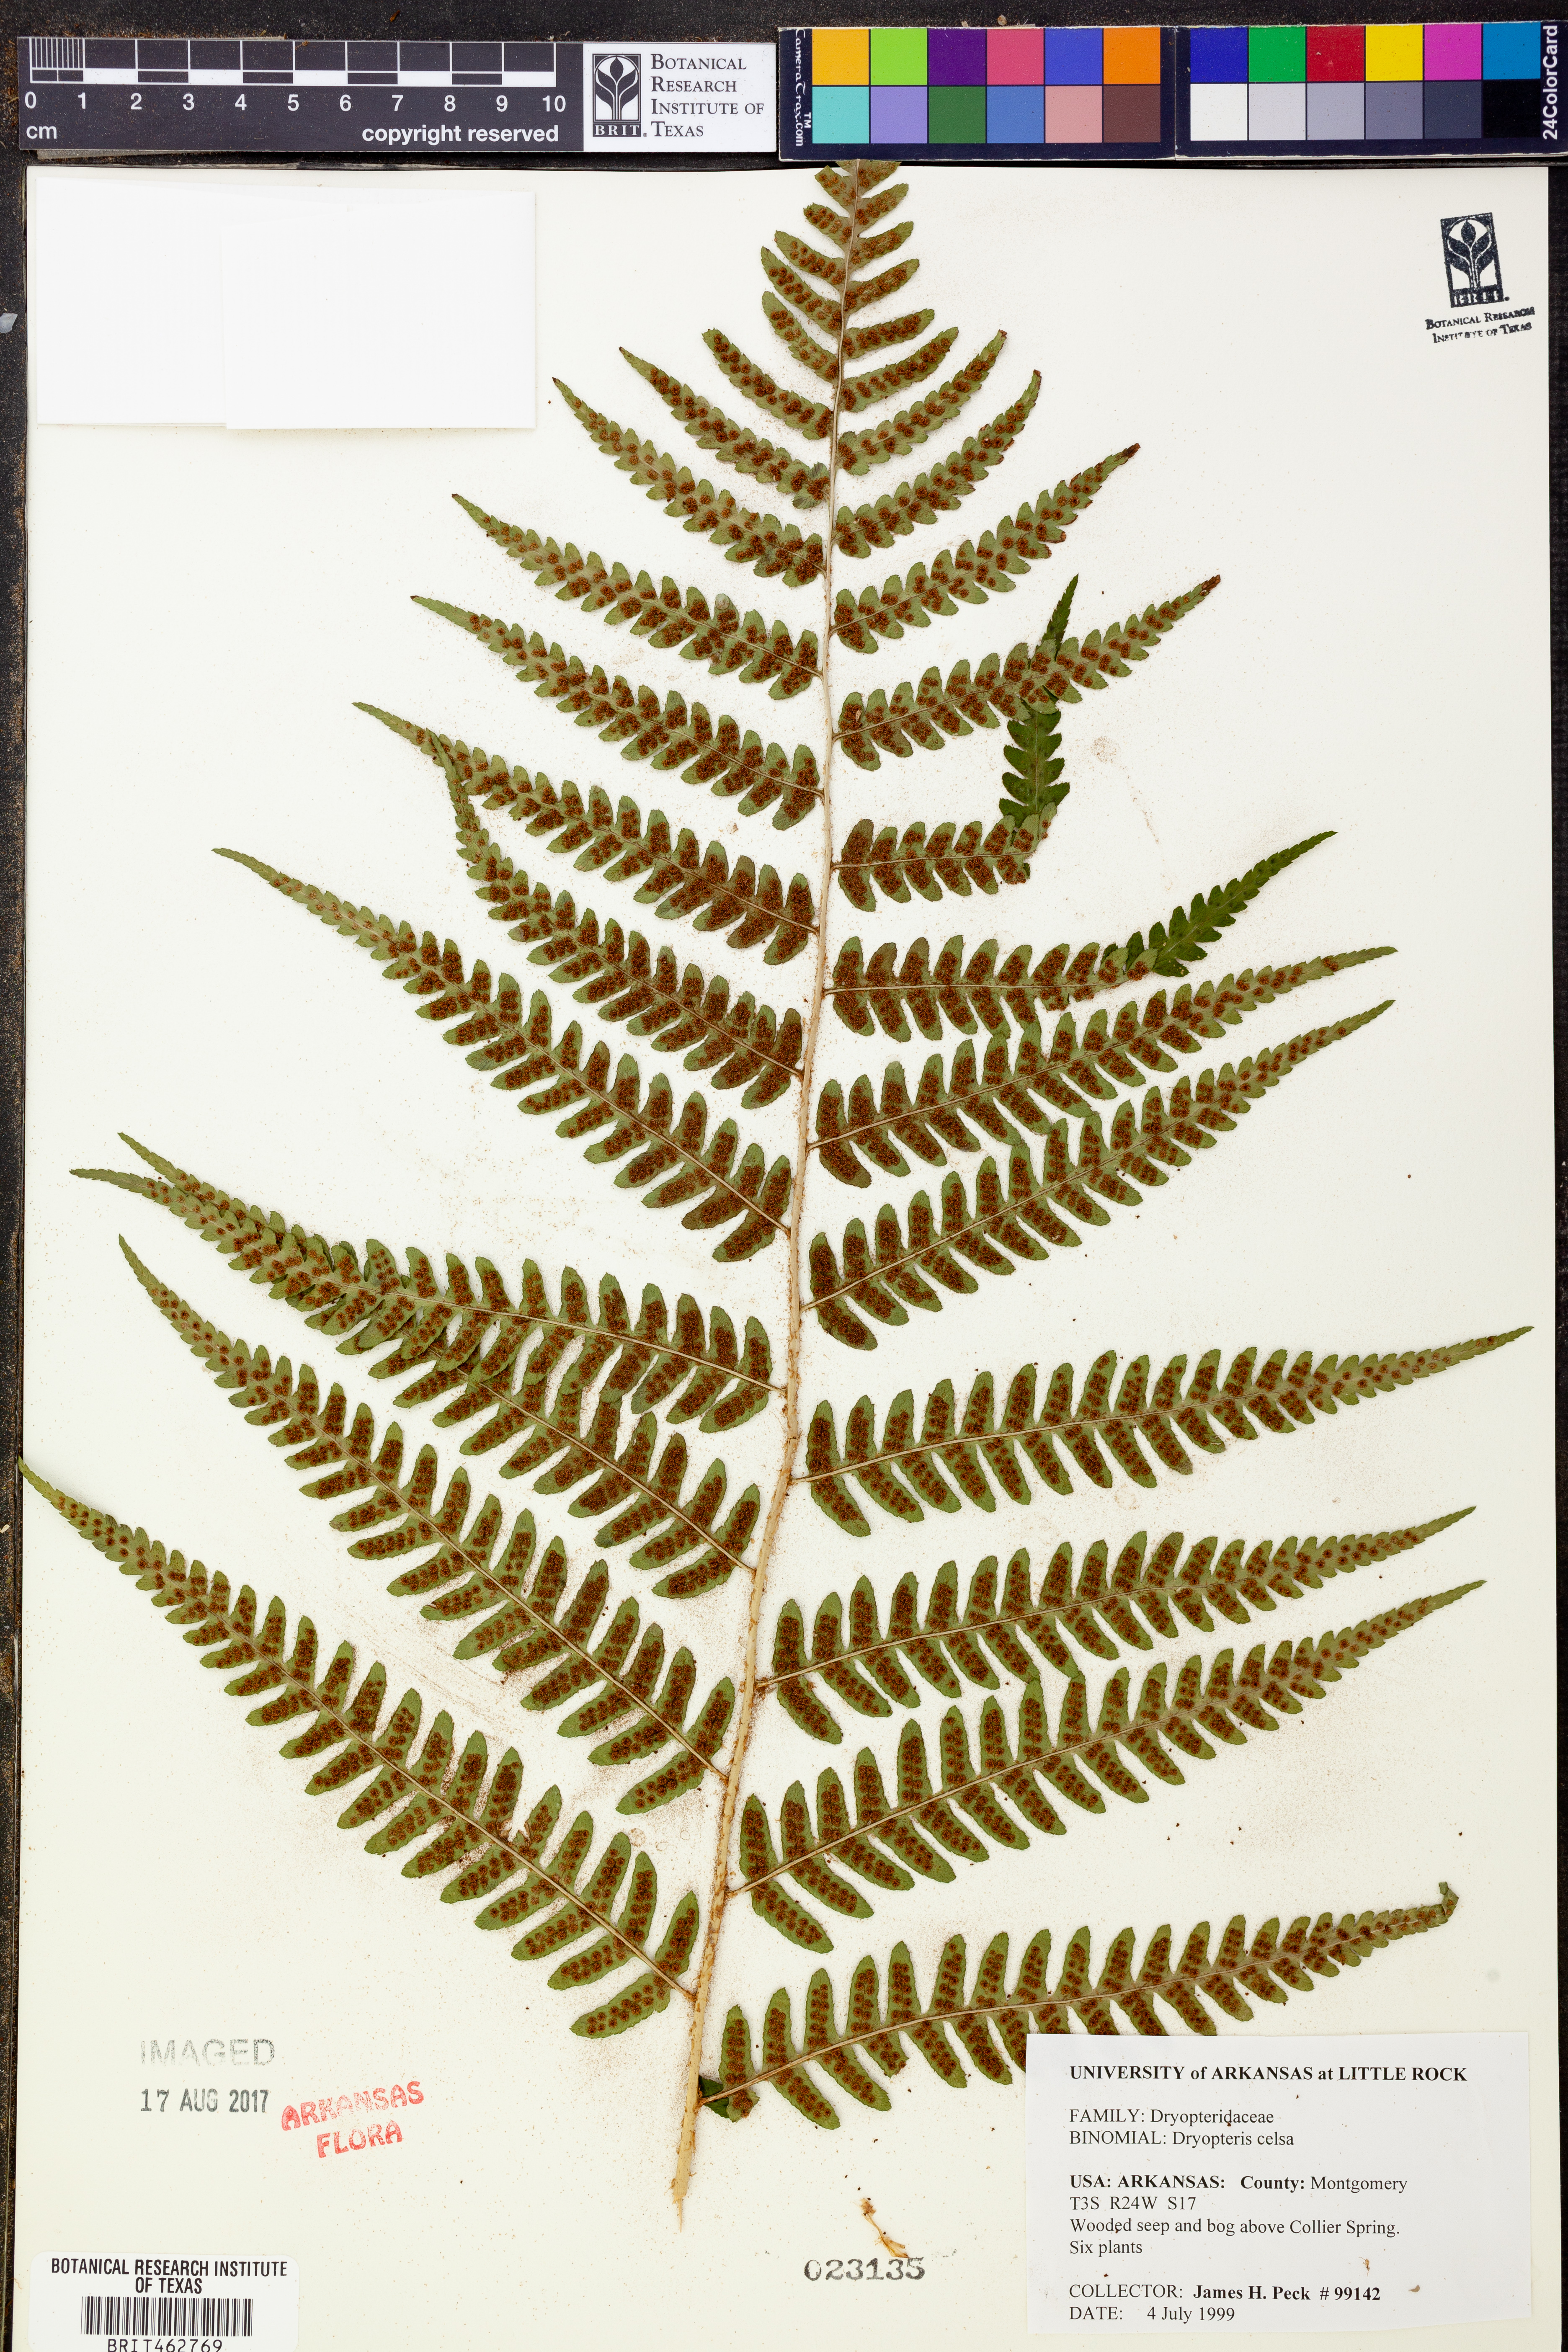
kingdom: Plantae
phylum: Tracheophyta
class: Polypodiopsida
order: Polypodiales
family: Dryopteridaceae
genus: Dryopteris
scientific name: Dryopteris celsa
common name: Log fern
